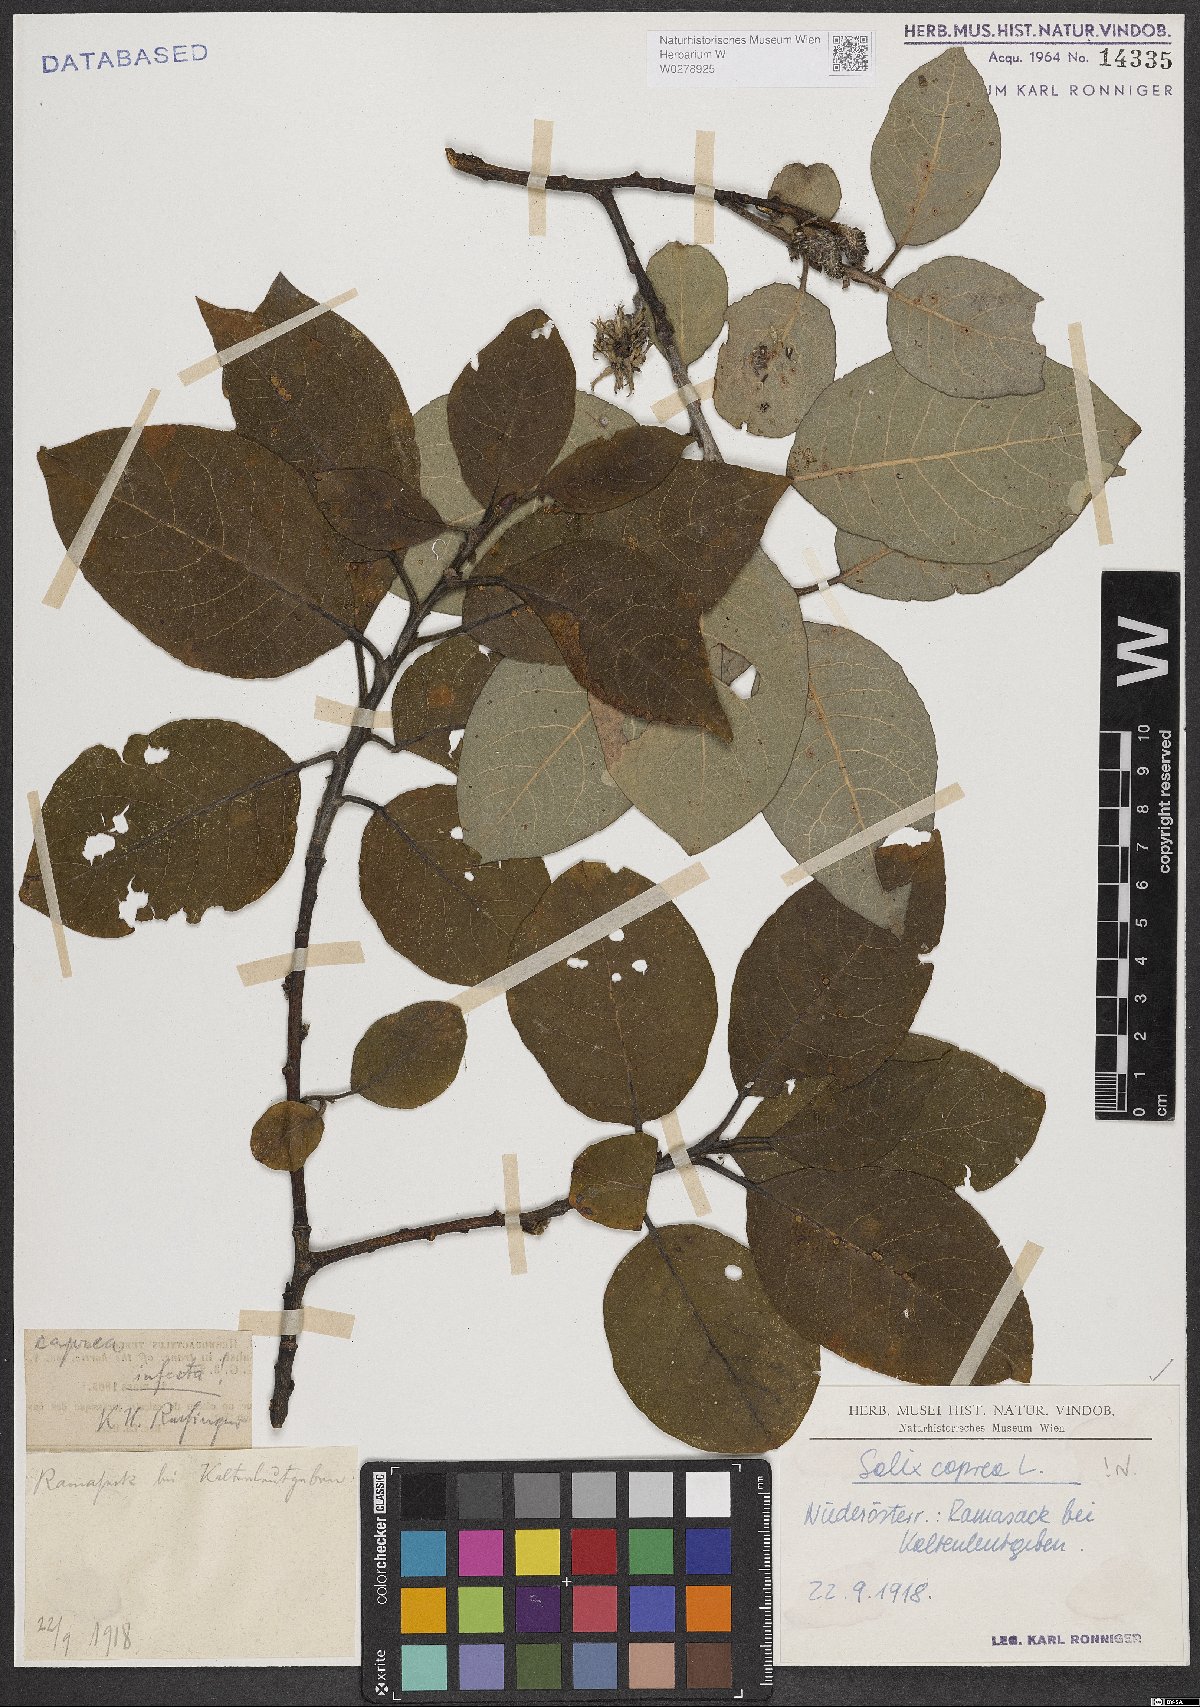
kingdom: Plantae
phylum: Tracheophyta
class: Magnoliopsida
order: Malpighiales
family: Salicaceae
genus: Salix
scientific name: Salix caprea
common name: Goat willow
